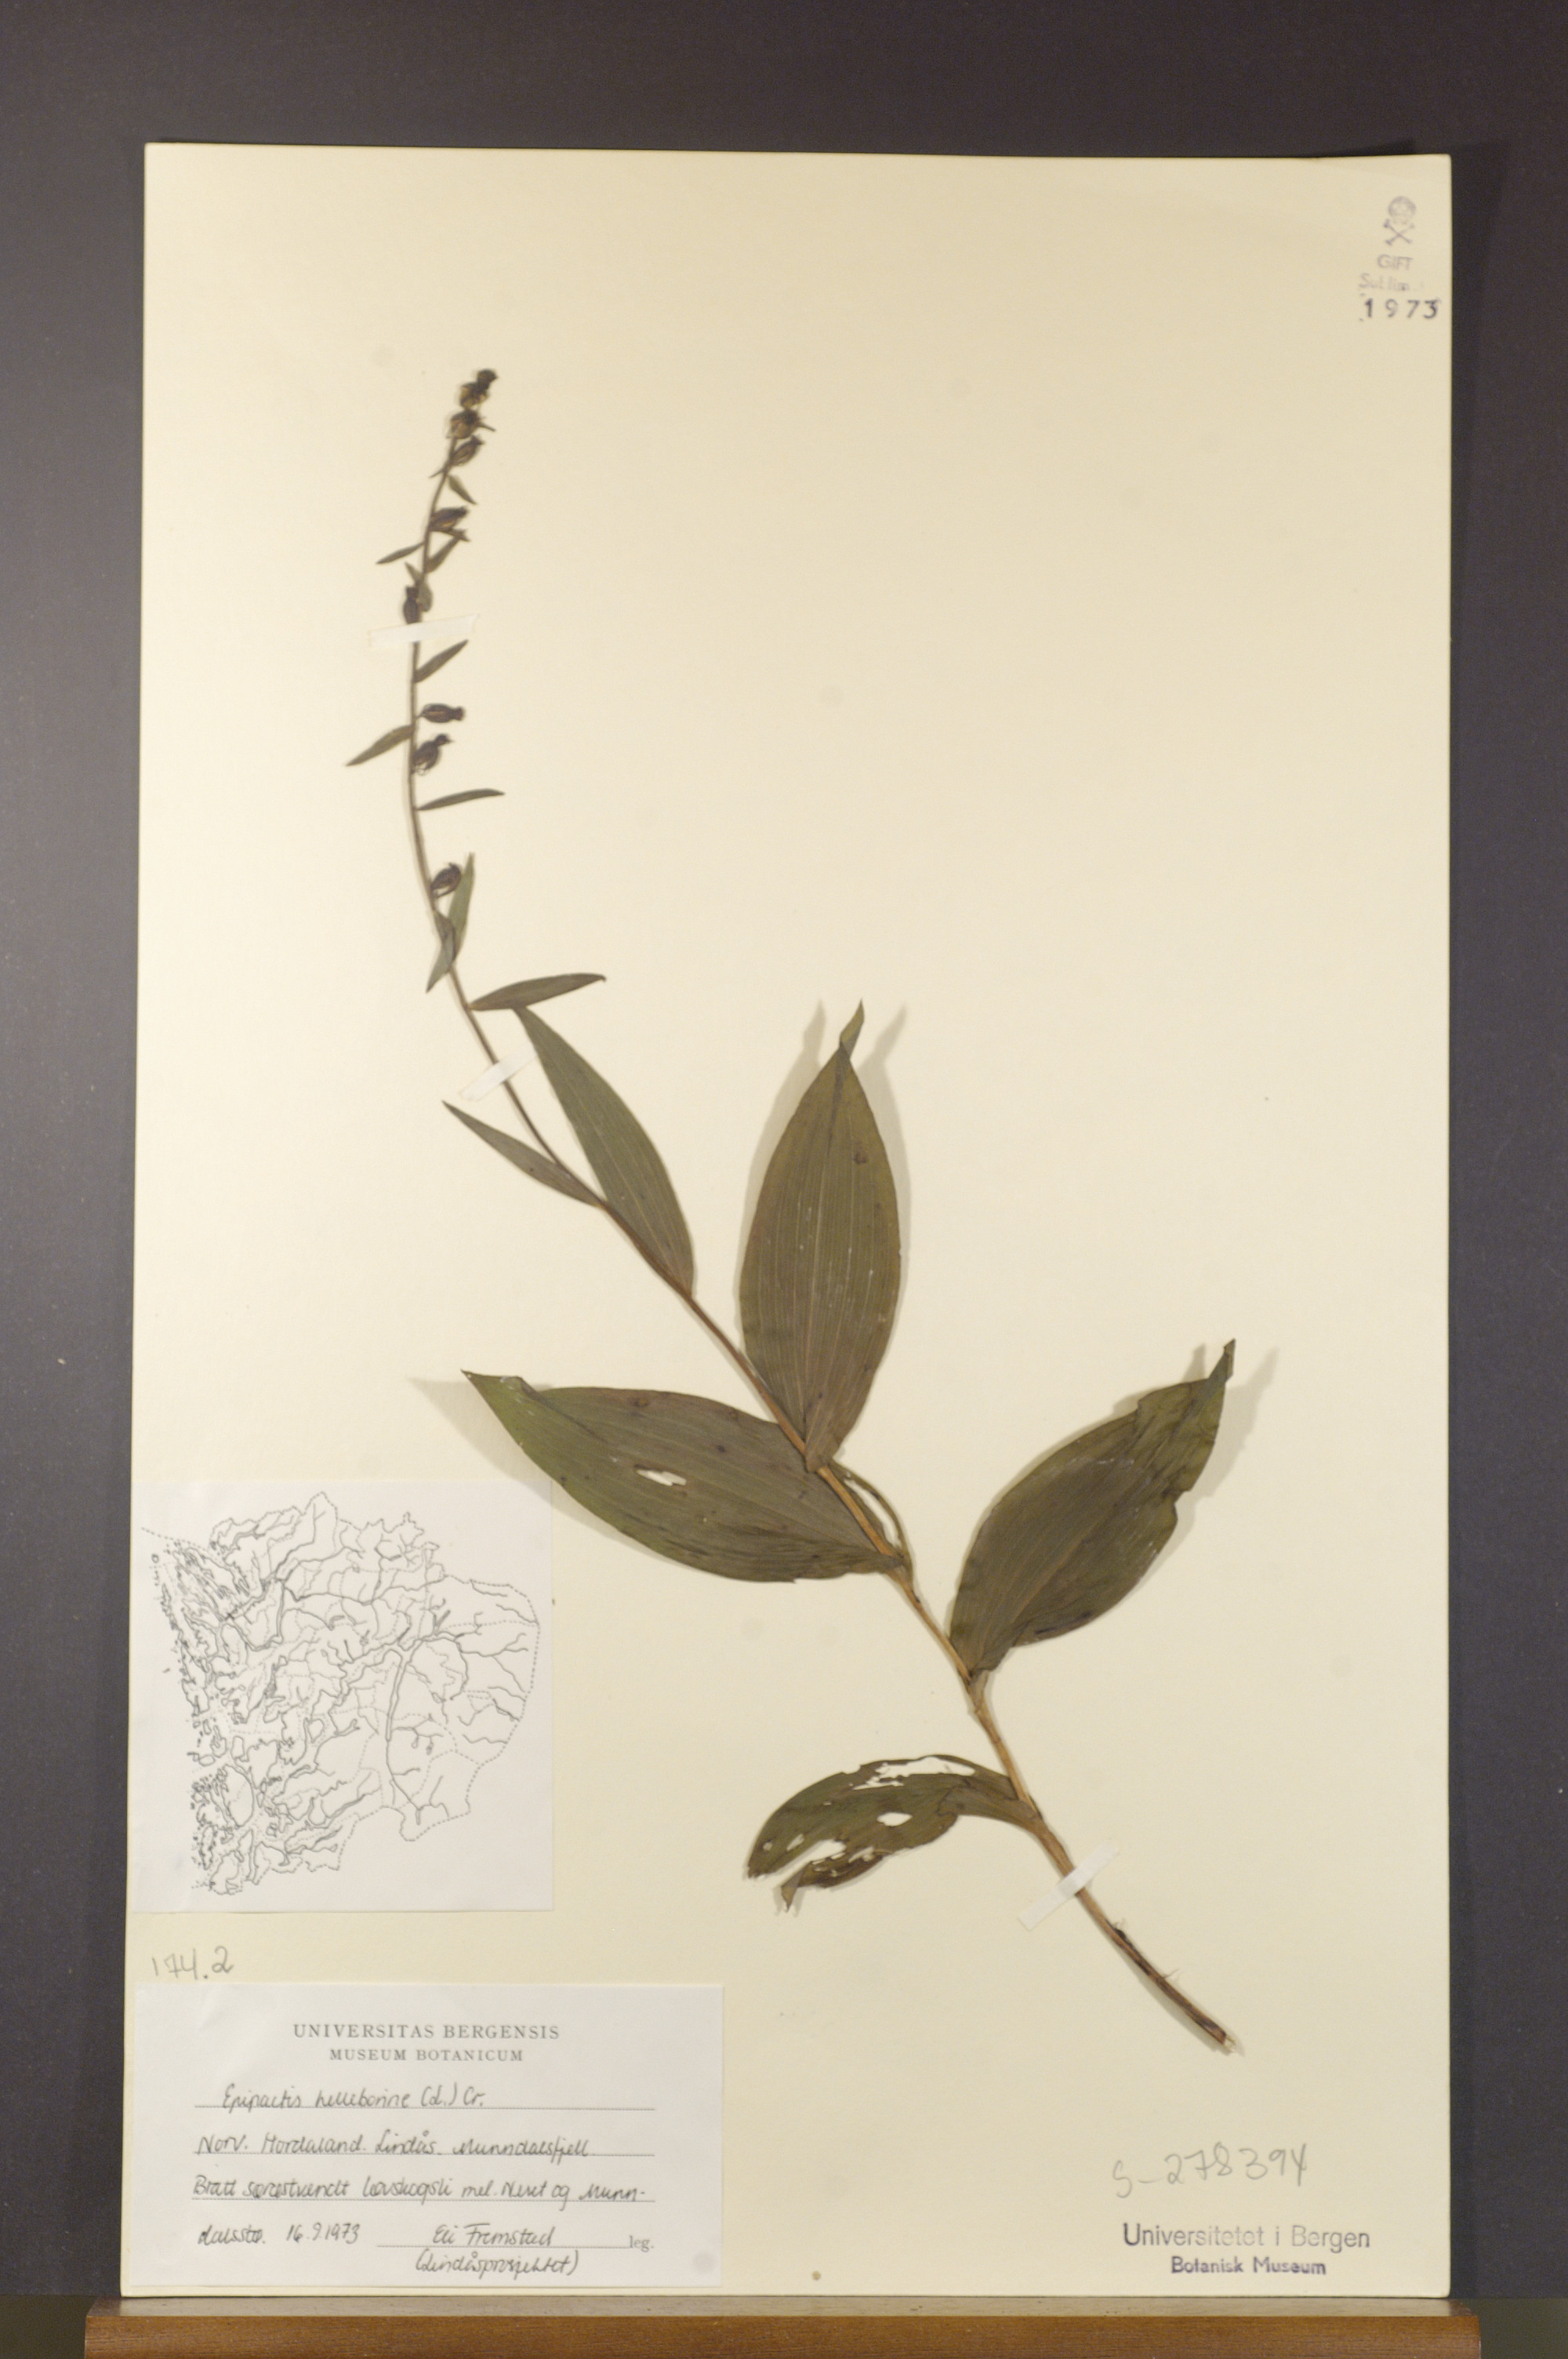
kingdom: Plantae
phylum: Tracheophyta
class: Liliopsida
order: Asparagales
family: Orchidaceae
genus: Epipactis
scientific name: Epipactis helleborine
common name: Broad-leaved helleborine
